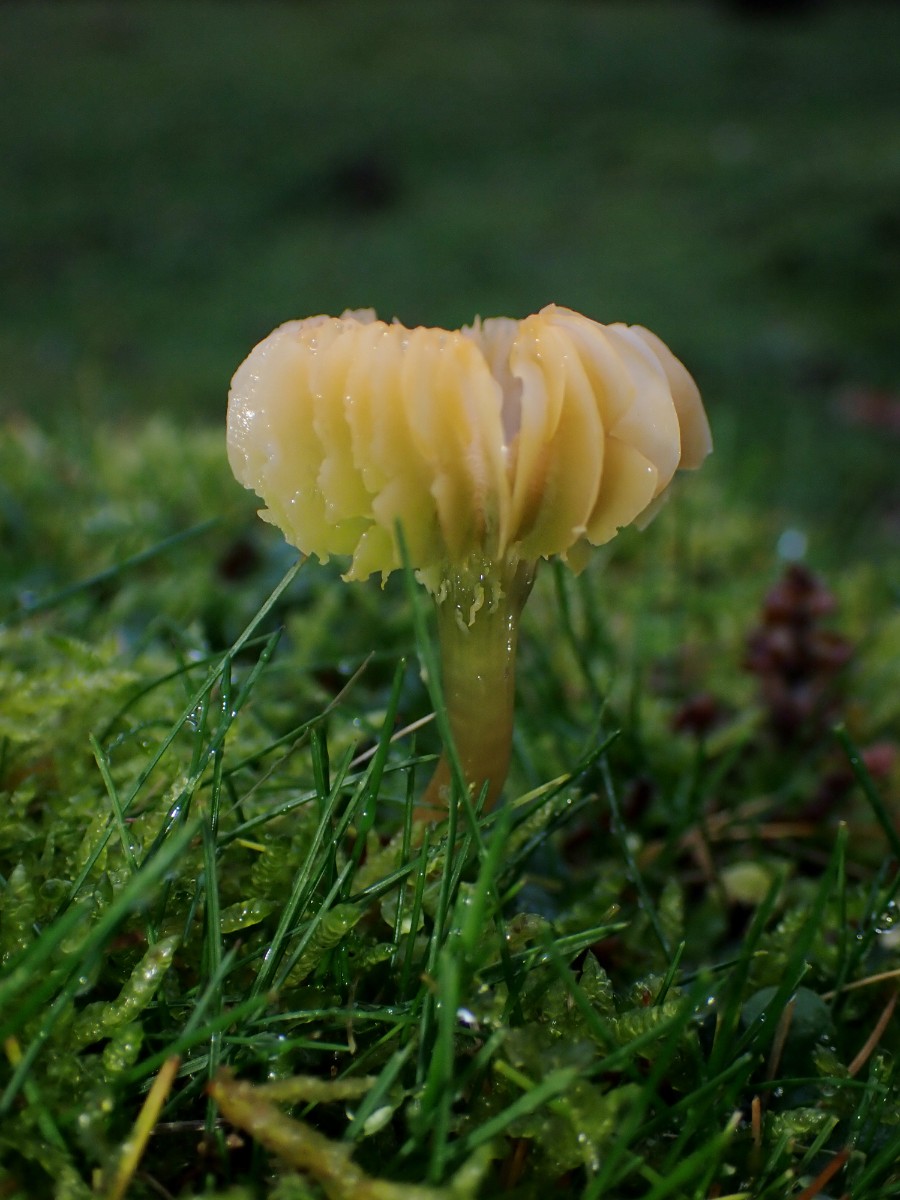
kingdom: Fungi
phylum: Basidiomycota
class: Agaricomycetes
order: Agaricales
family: Hygrophoraceae
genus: Gliophorus
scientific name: Gliophorus psittacinus
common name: papegøje-vokshat
